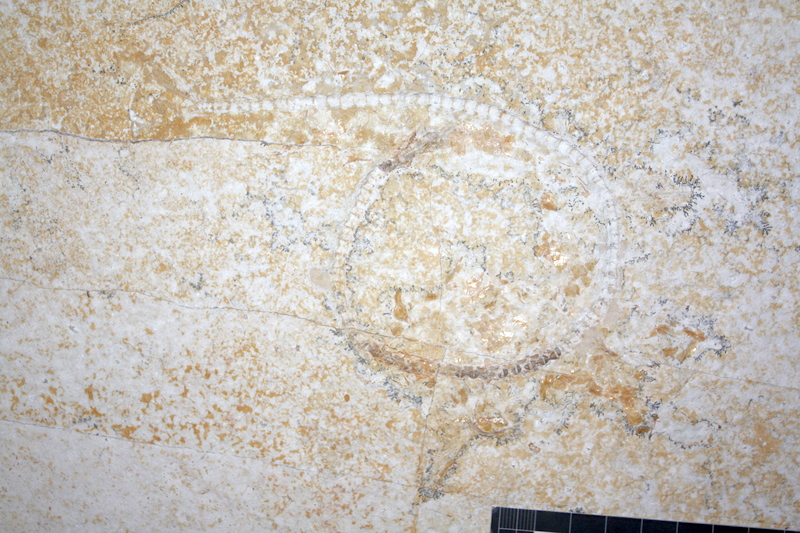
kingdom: Animalia
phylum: Chordata
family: Aspidorhynchidae
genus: Belonostomus
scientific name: Belonostomus tenuirostris
